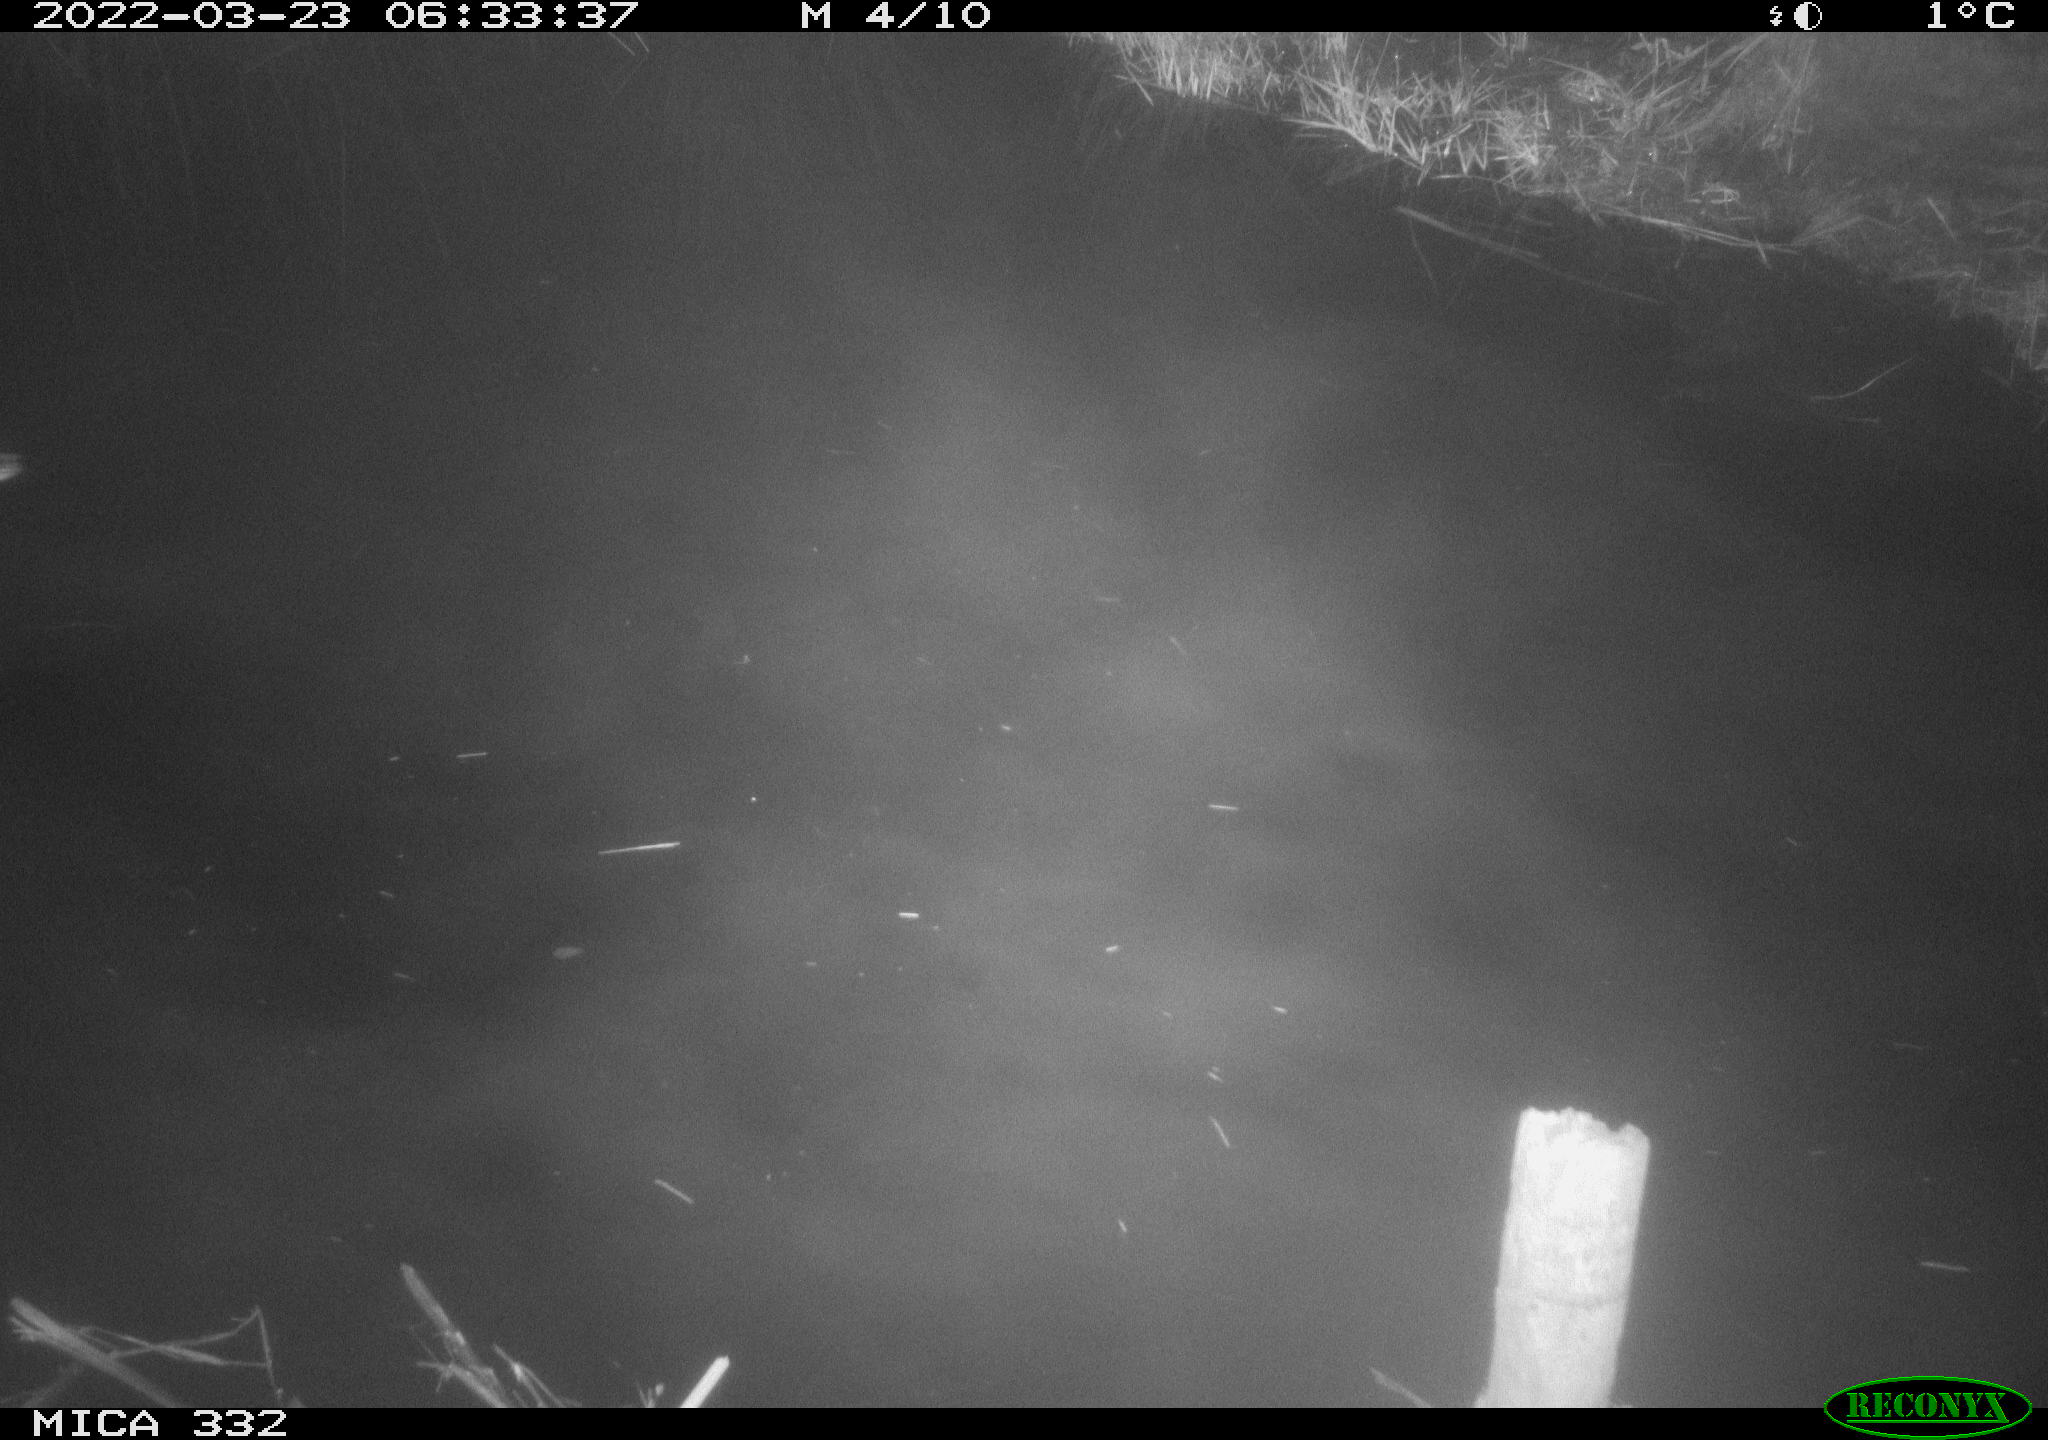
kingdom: Animalia
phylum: Chordata
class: Aves
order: Anseriformes
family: Anatidae
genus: Anas
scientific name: Anas platyrhynchos
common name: Mallard
